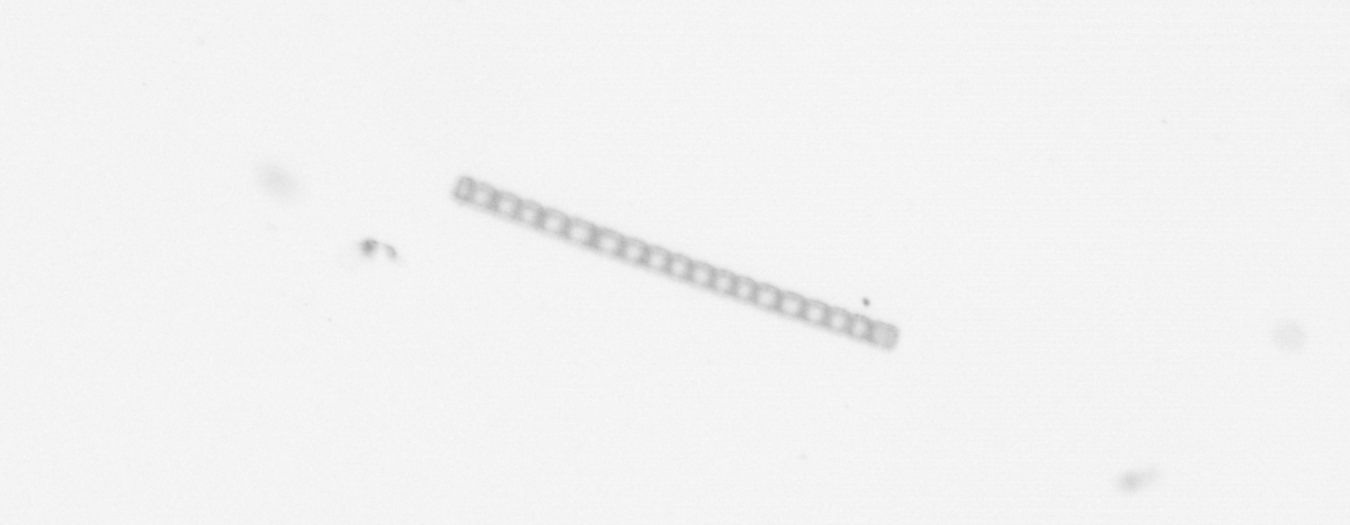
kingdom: Chromista
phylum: Ochrophyta
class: Bacillariophyceae
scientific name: Bacillariophyceae
